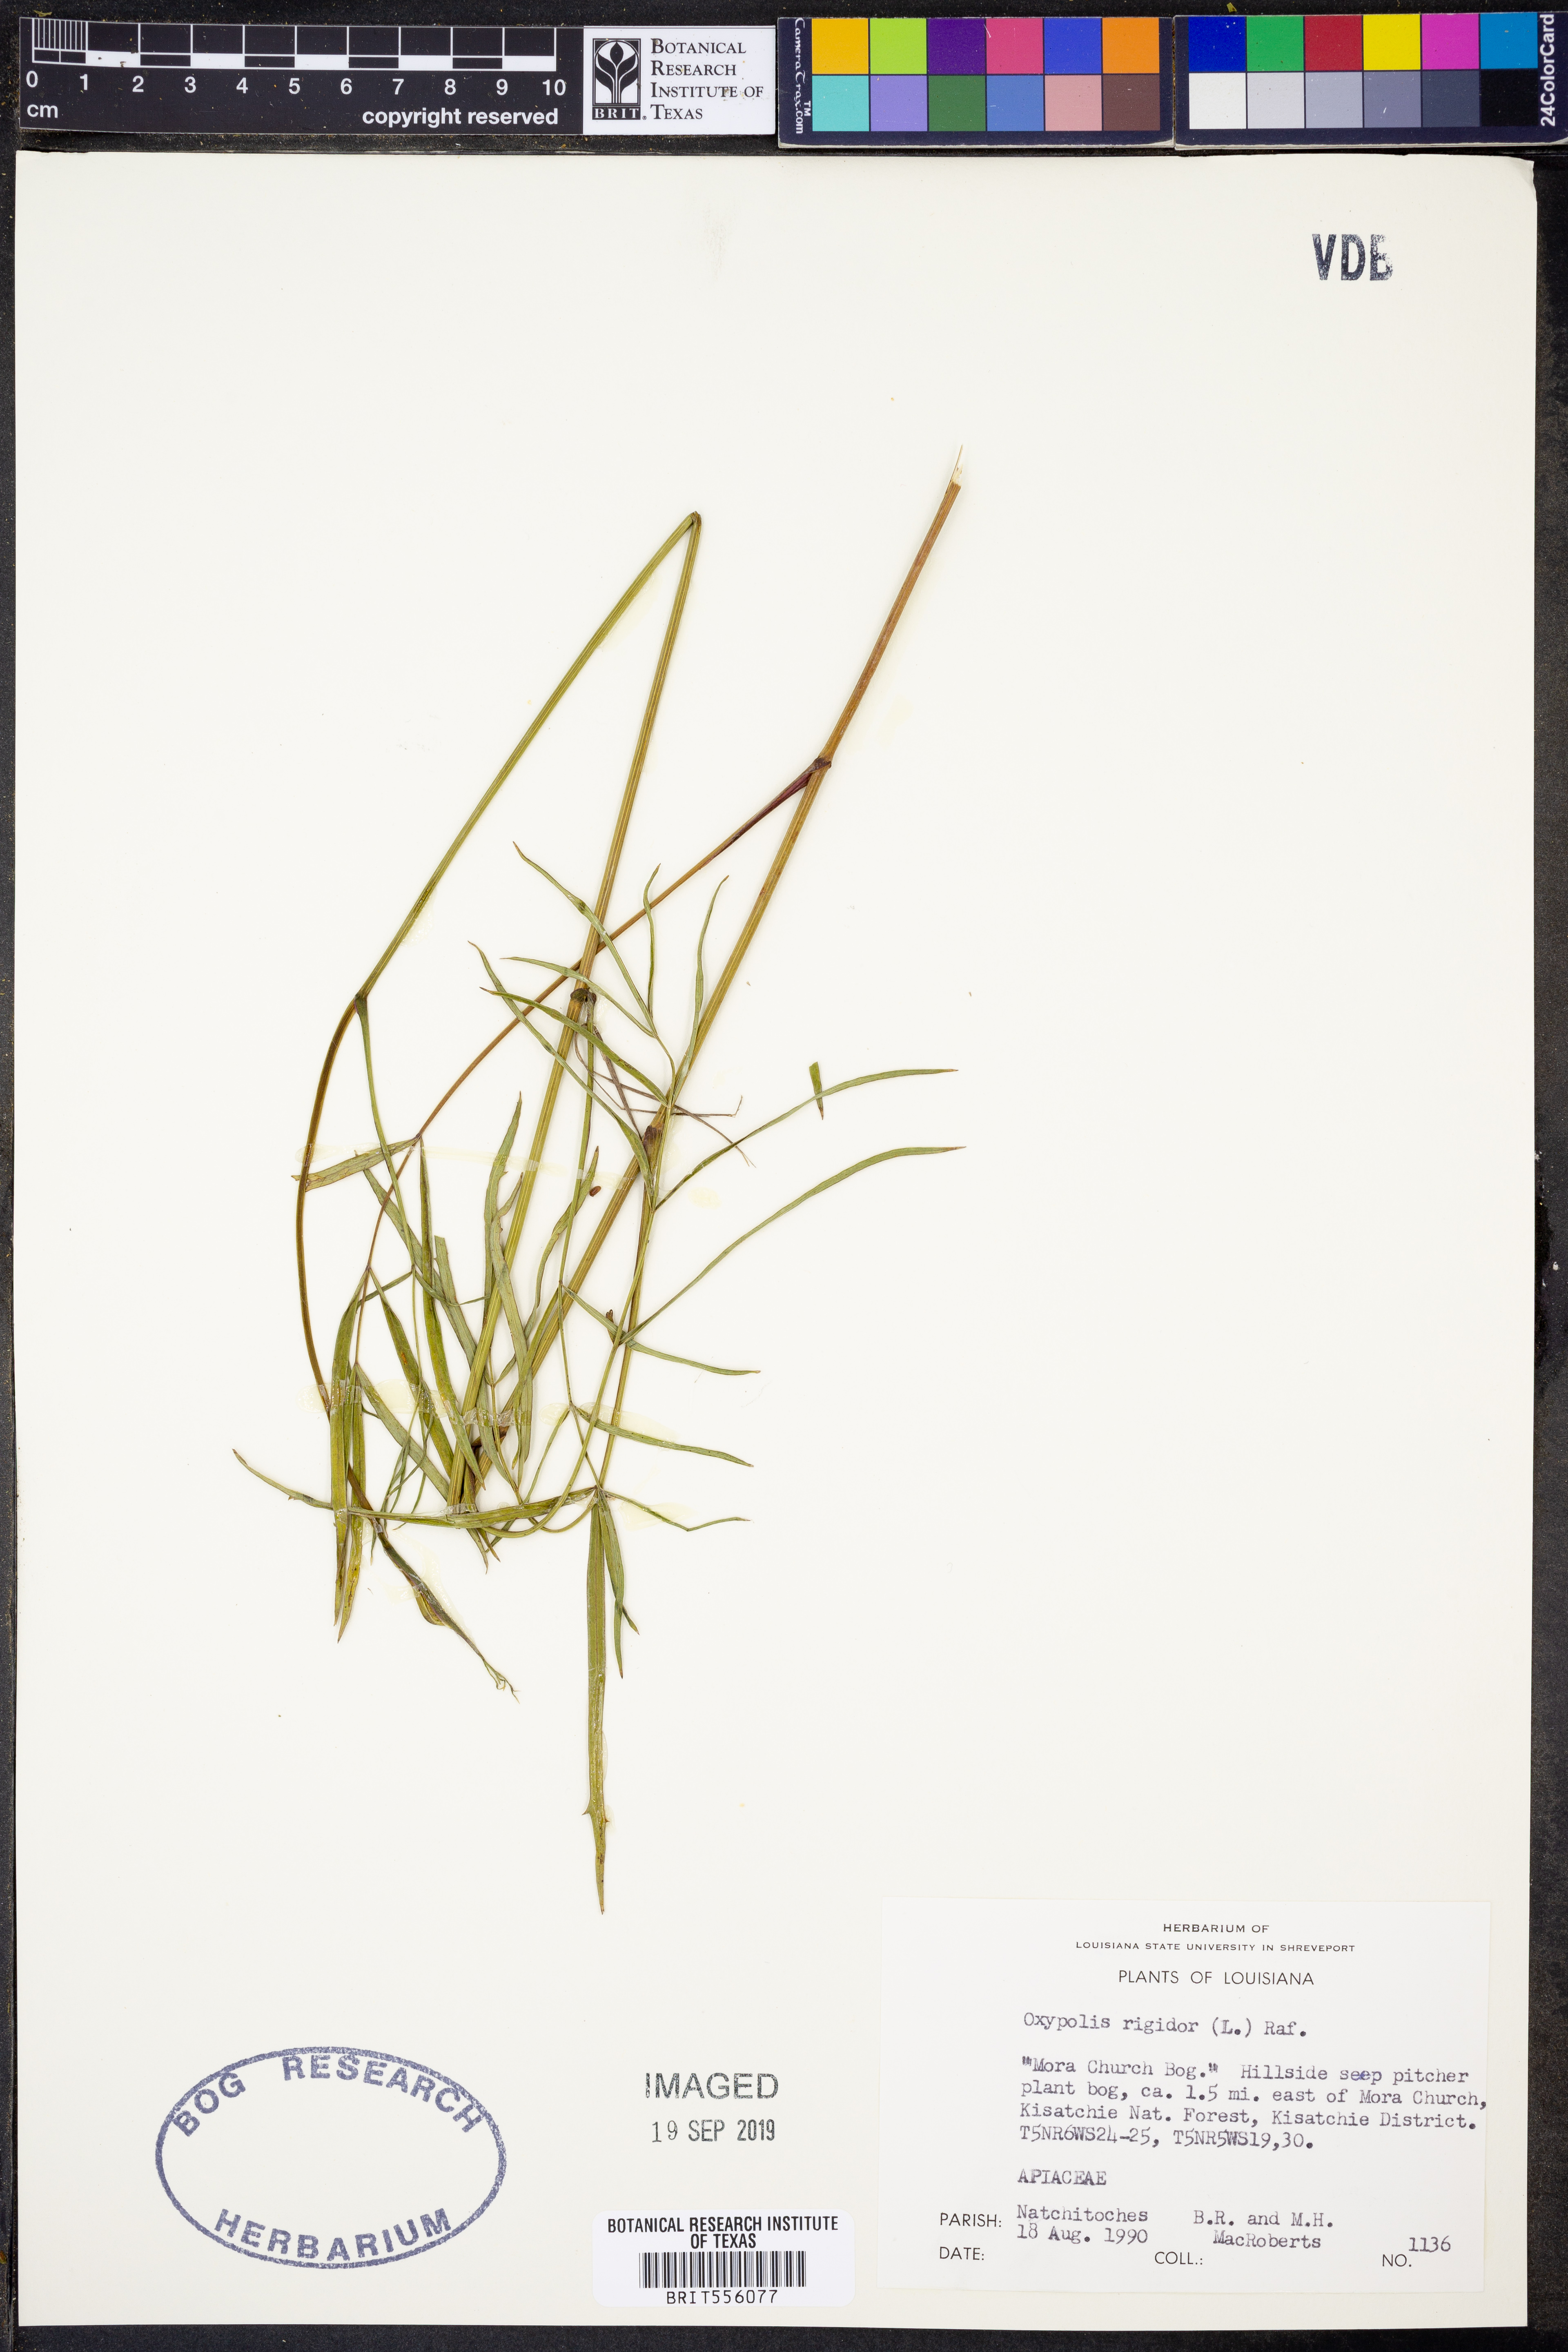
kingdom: Plantae
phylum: Tracheophyta
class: Magnoliopsida
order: Apiales
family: Apiaceae
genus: Oxypolis
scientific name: Oxypolis rigidior
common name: Cowbane
